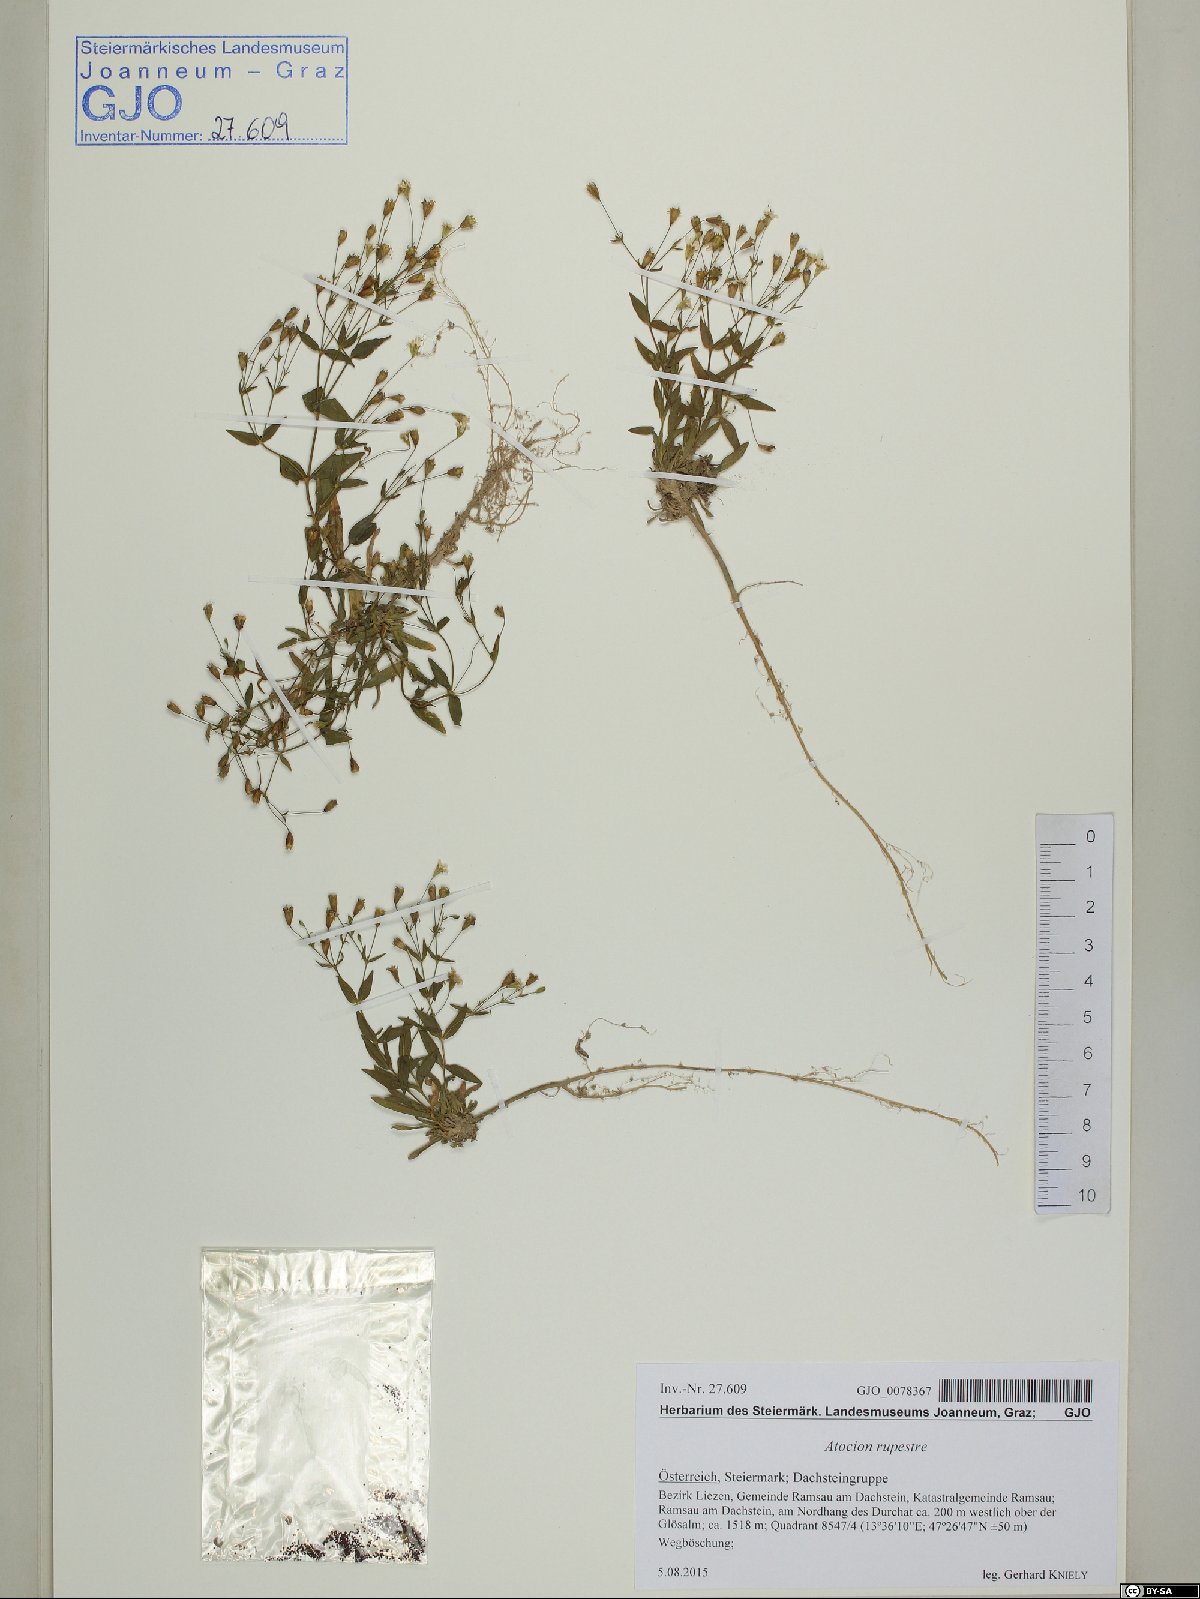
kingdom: Plantae
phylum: Tracheophyta
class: Magnoliopsida
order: Caryophyllales
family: Caryophyllaceae
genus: Atocion
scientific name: Atocion rupestre
